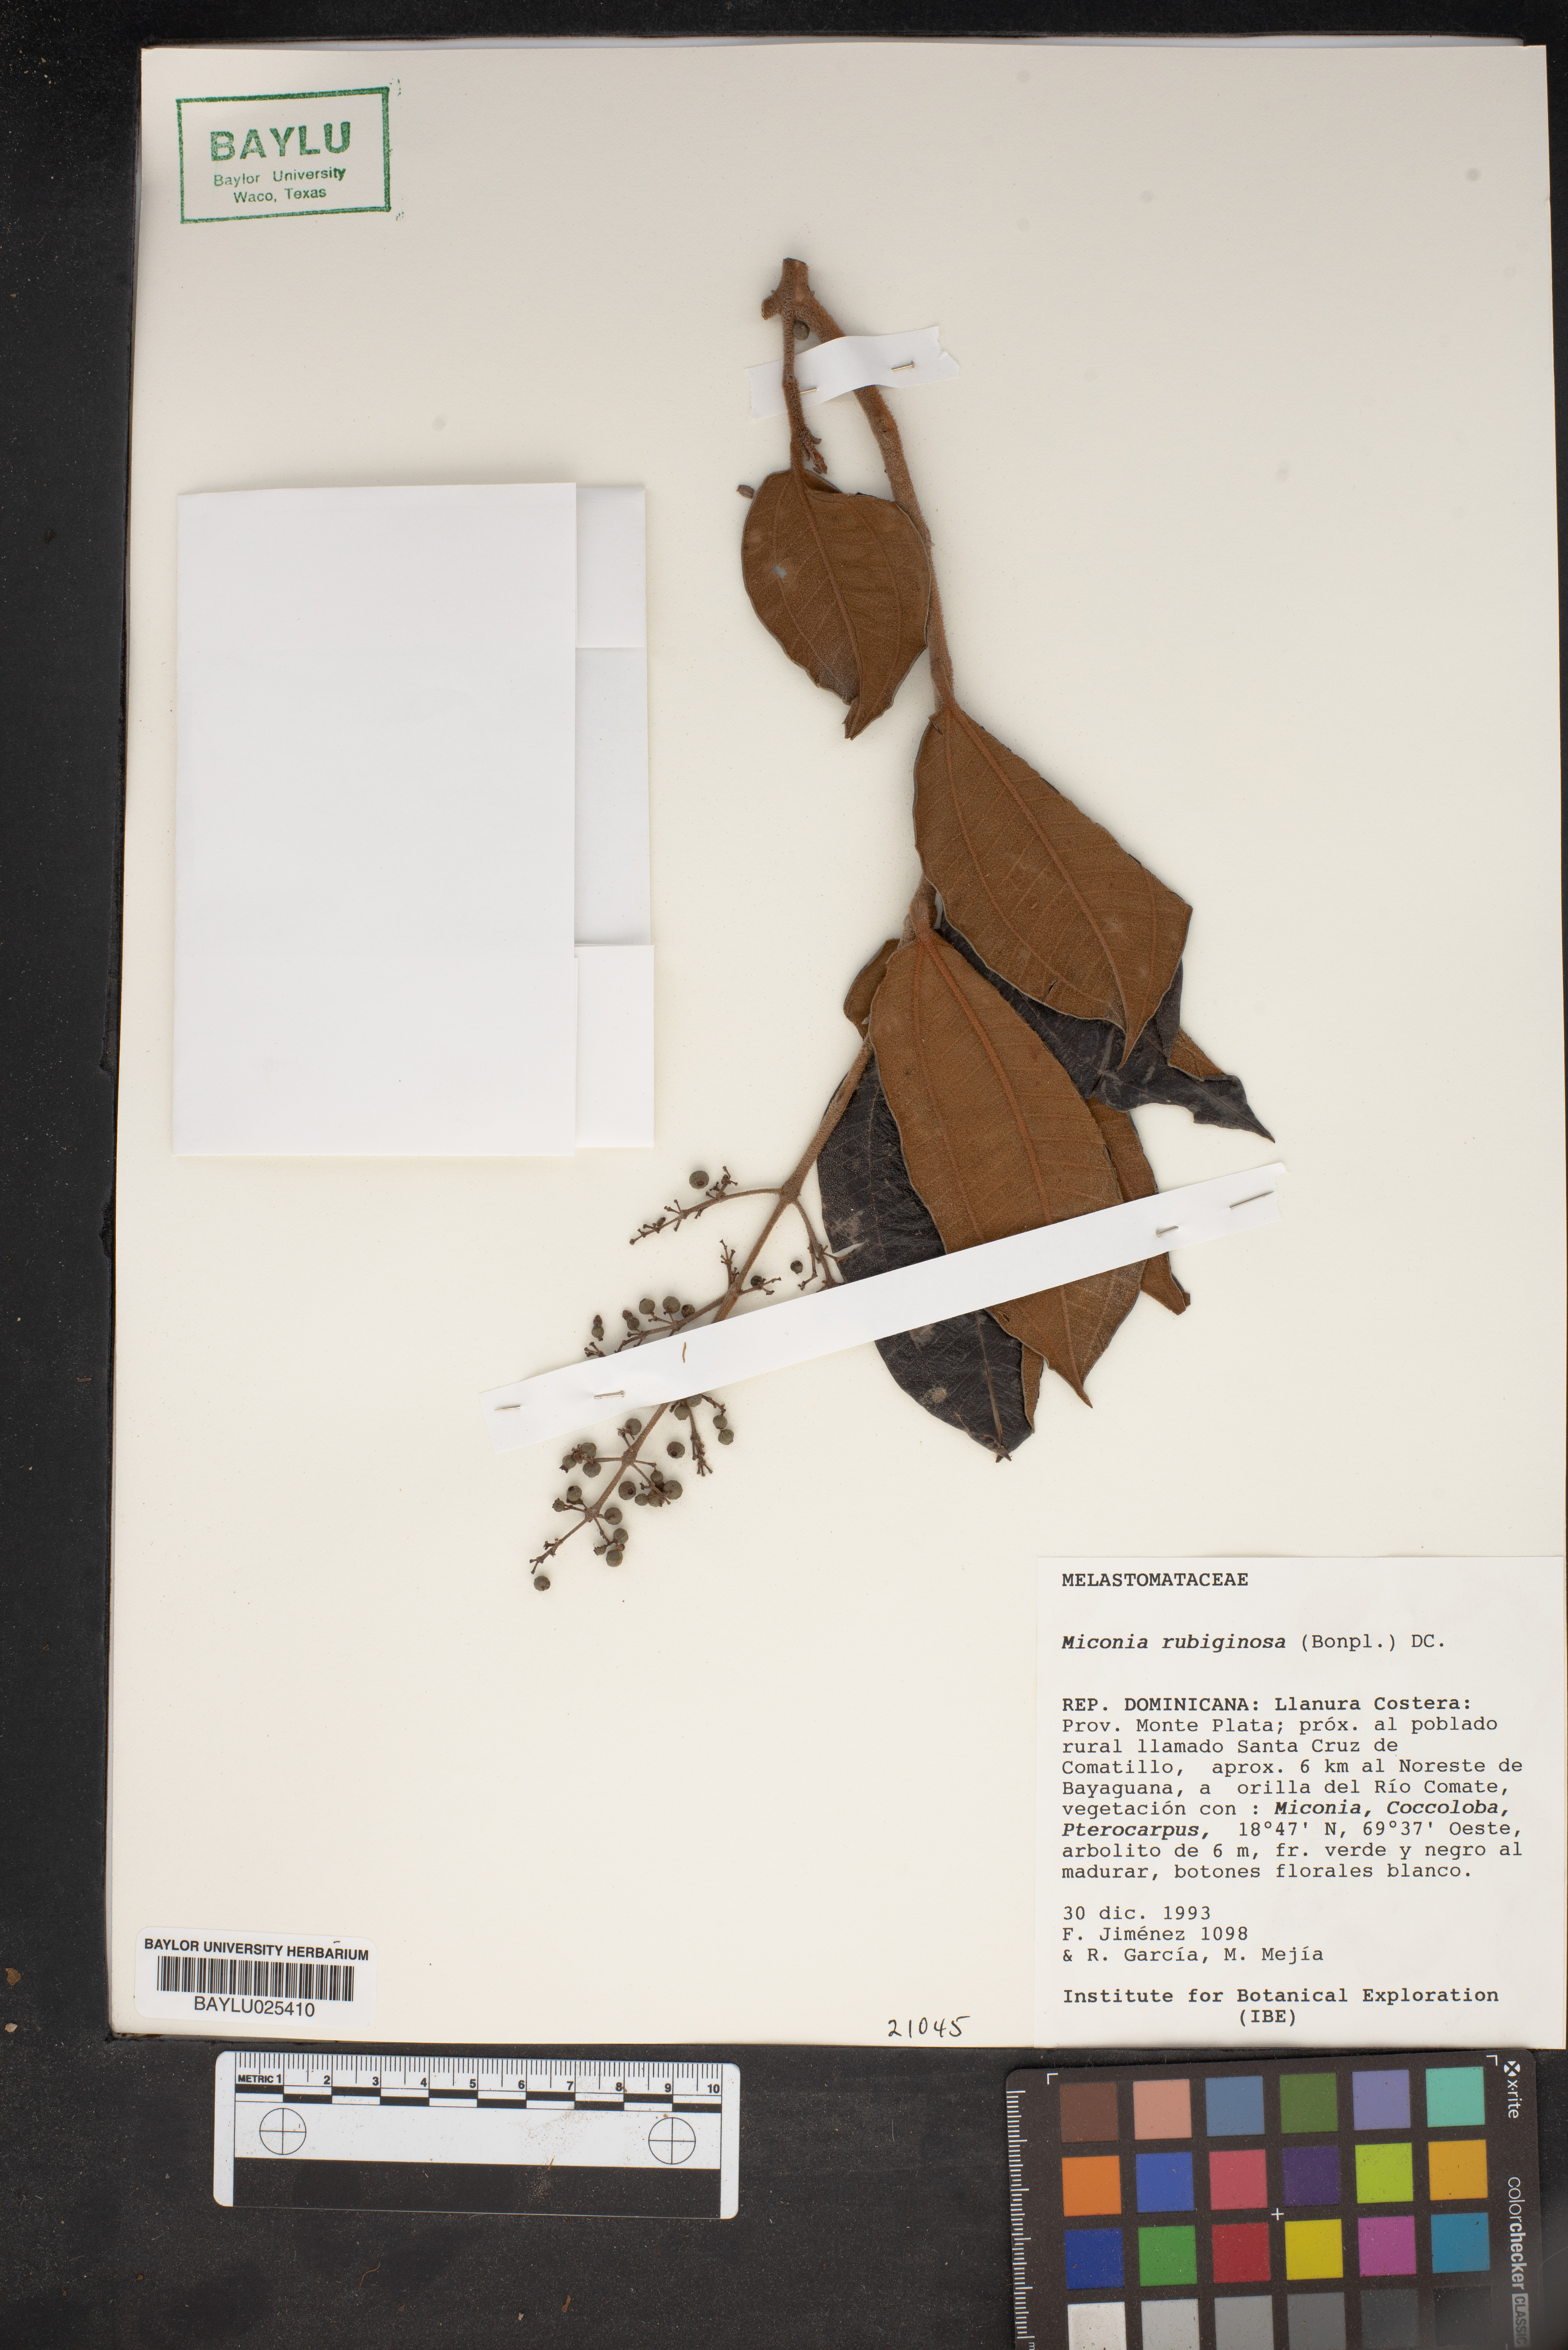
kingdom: Plantae
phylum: Tracheophyta
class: Magnoliopsida
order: Myrtales
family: Melastomataceae
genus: Miconia
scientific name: Miconia rubiginosa
